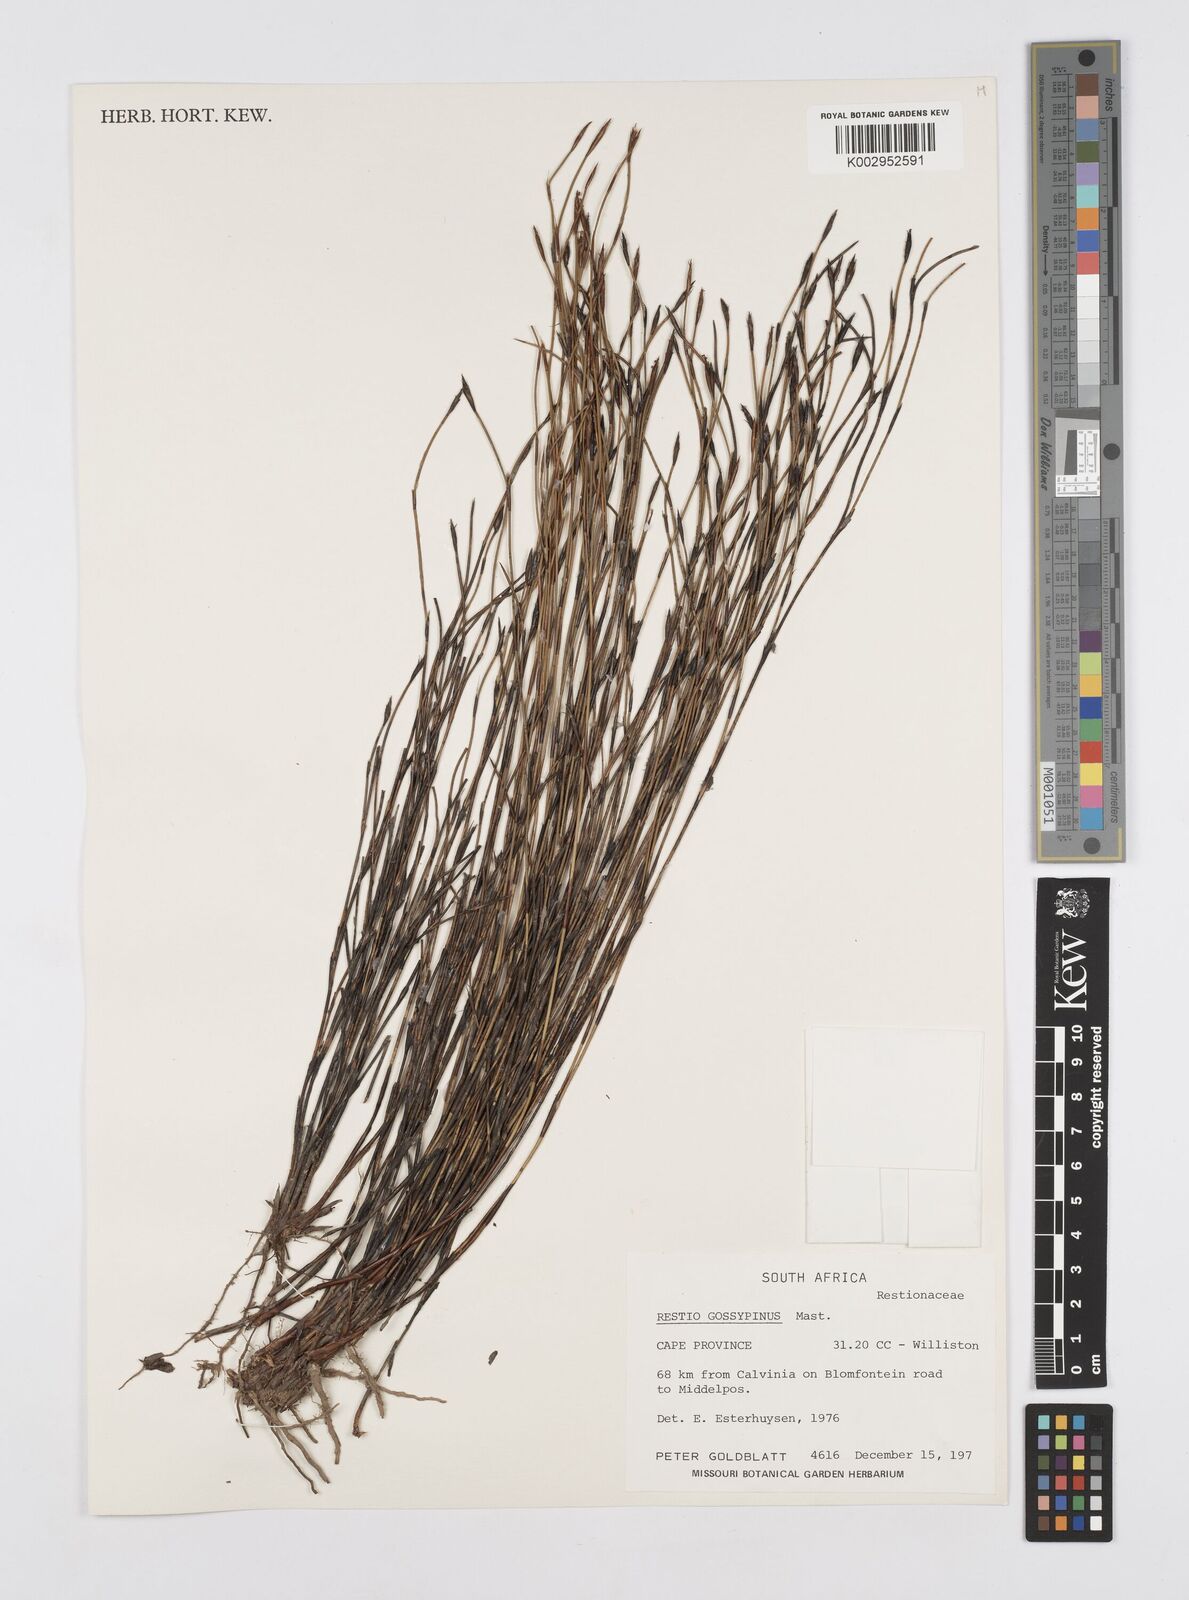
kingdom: Plantae
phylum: Tracheophyta
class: Liliopsida
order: Poales
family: Restionaceae
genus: Restio
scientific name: Restio gossypinus
